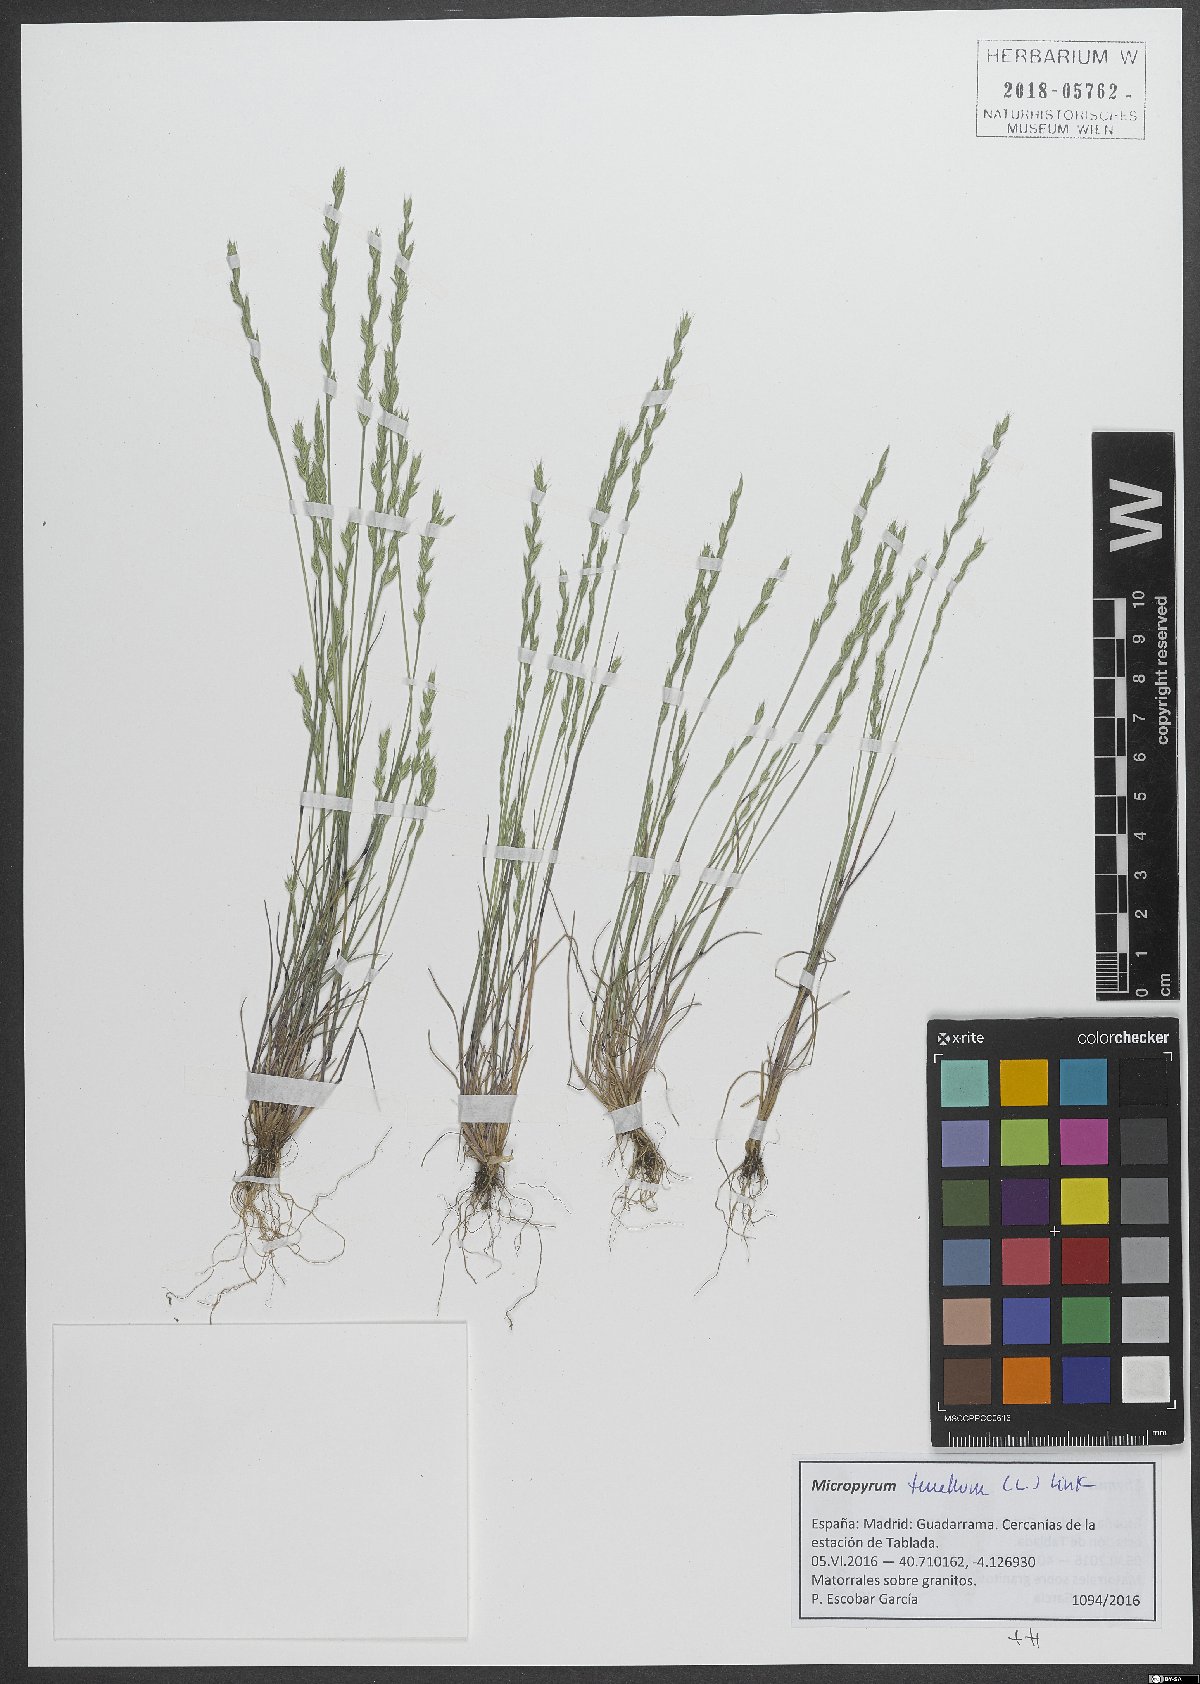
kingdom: Plantae
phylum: Tracheophyta
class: Liliopsida
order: Poales
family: Poaceae
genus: Festuca
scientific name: Festuca lachenalii
